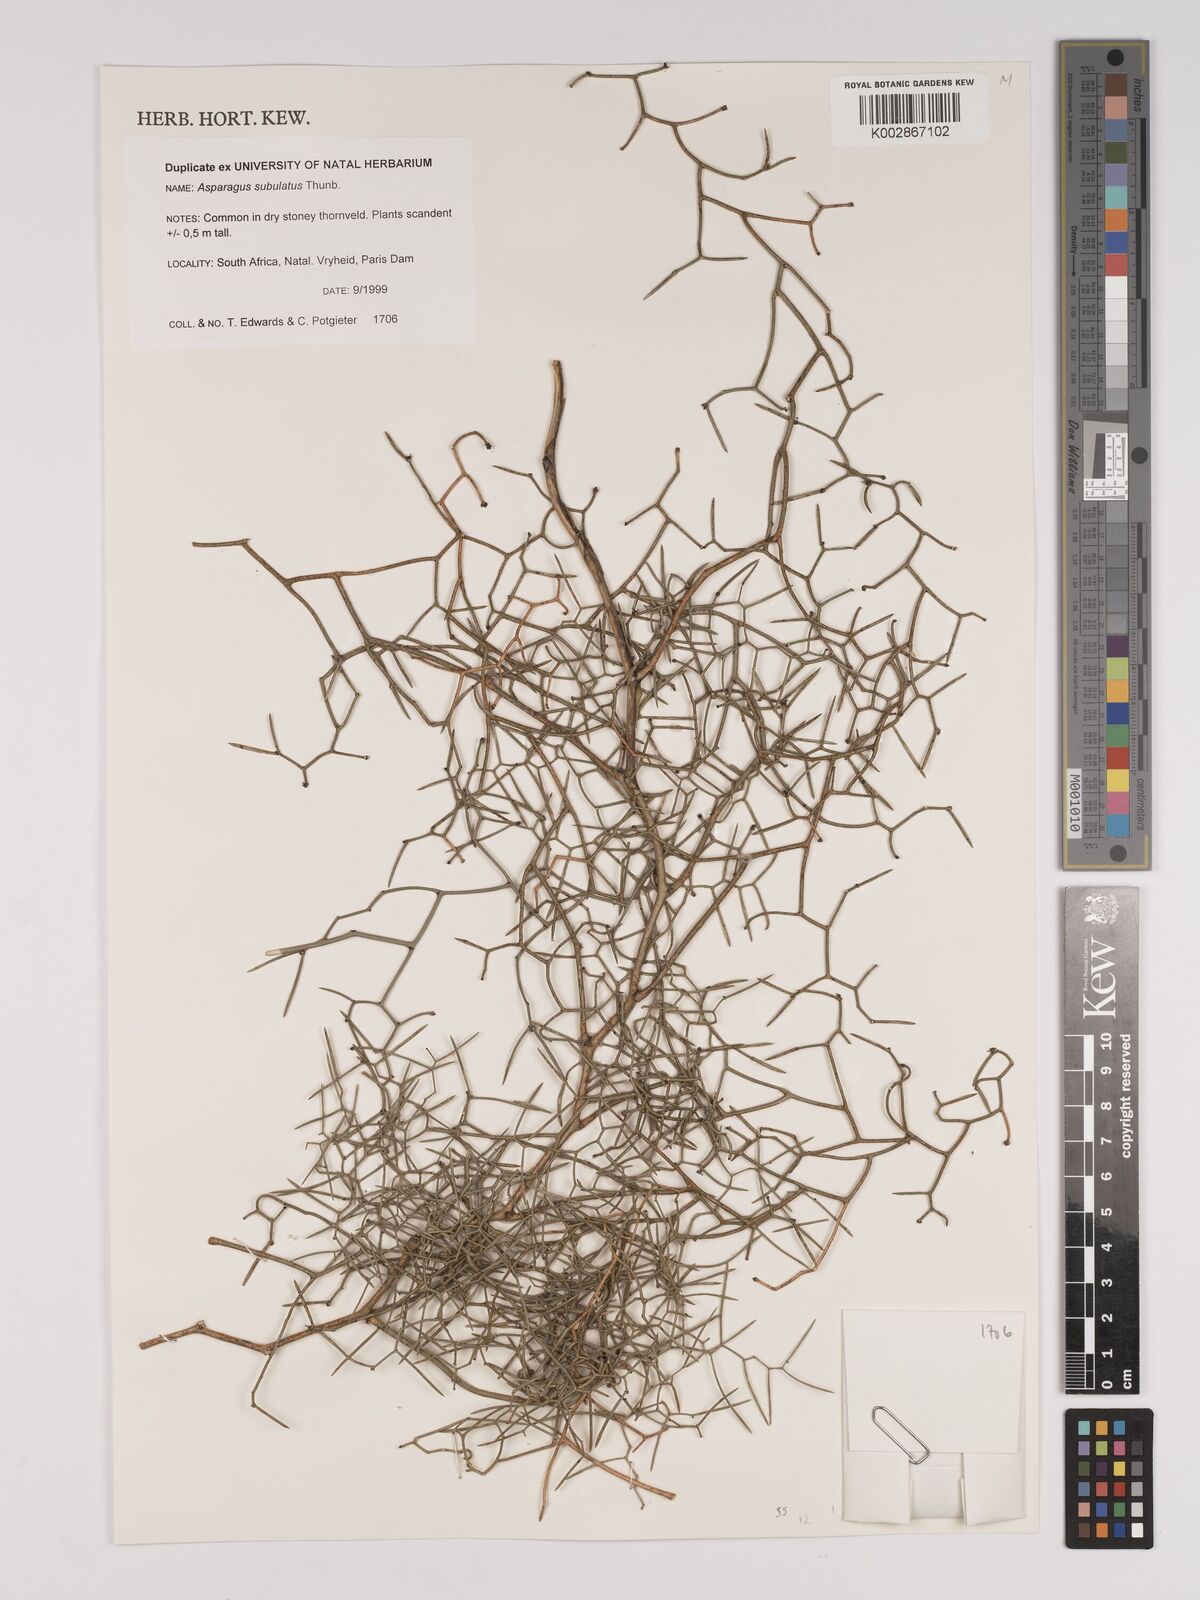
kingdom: Plantae
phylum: Tracheophyta
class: Liliopsida
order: Asparagales
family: Asparagaceae
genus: Asparagus
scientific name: Asparagus subulatus
